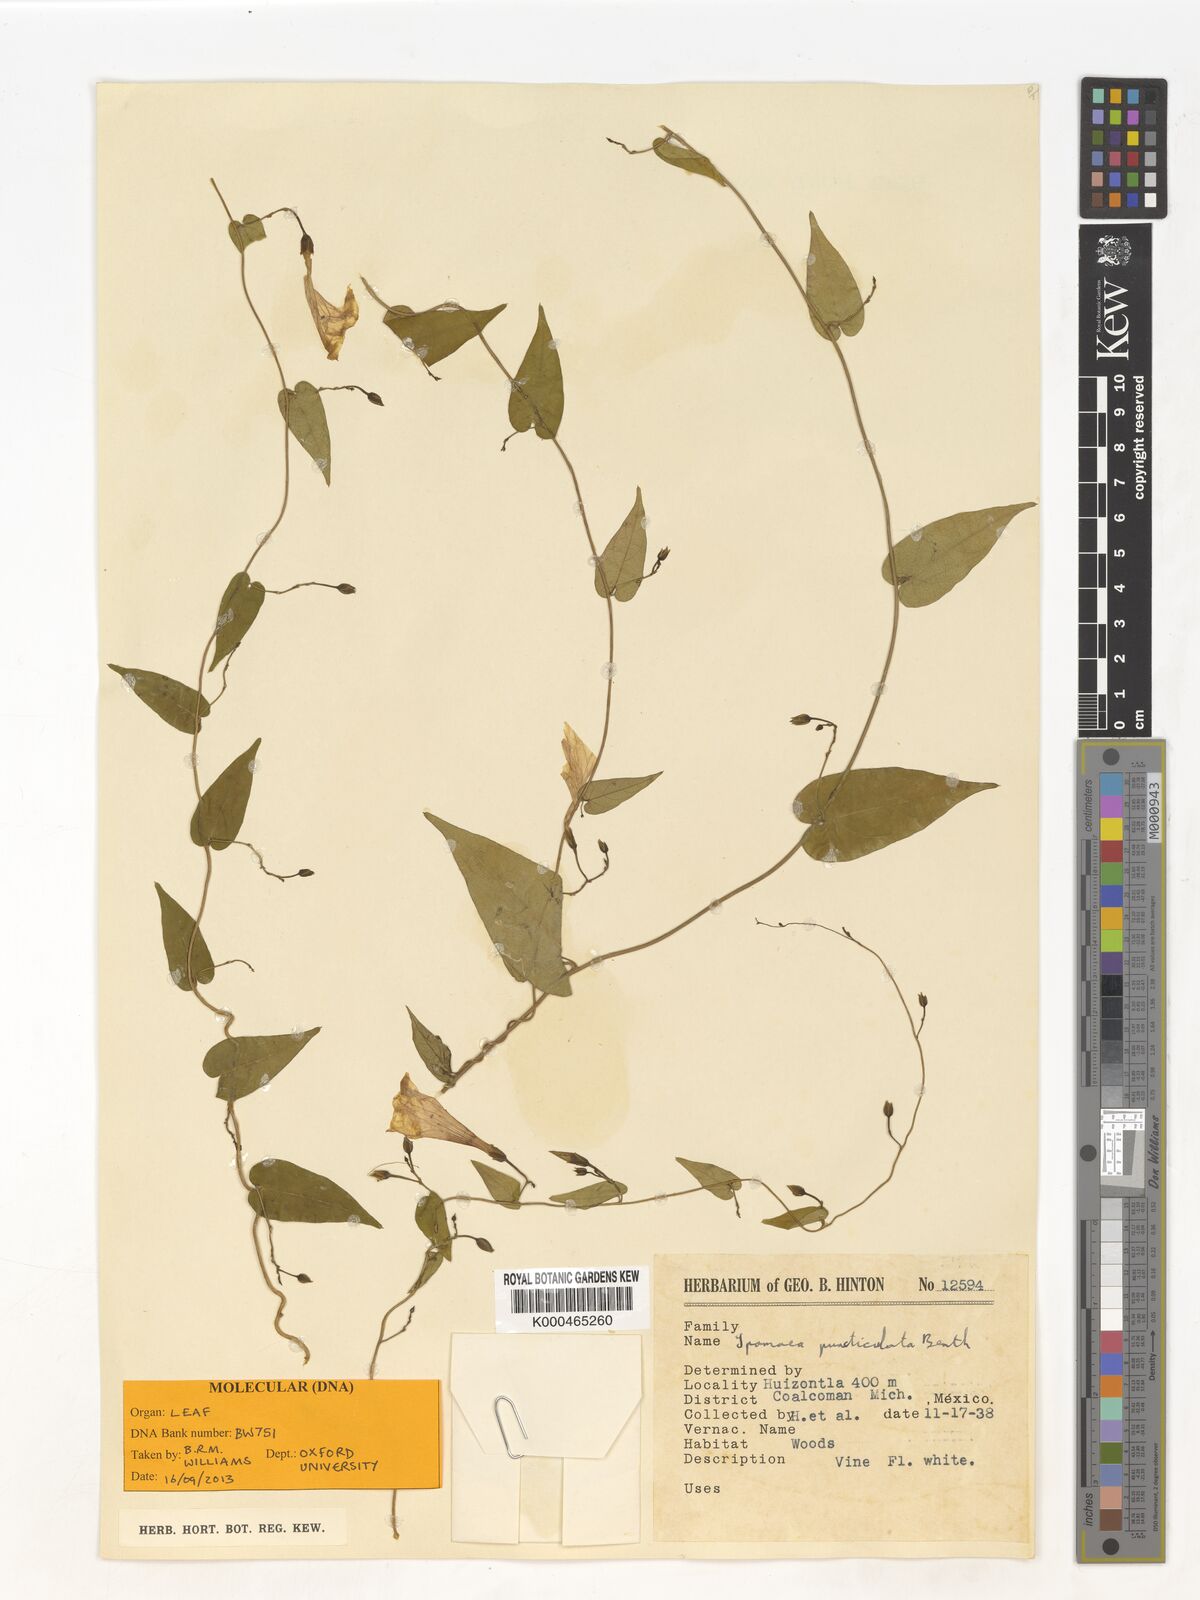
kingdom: Plantae
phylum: Tracheophyta
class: Magnoliopsida
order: Solanales
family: Convolvulaceae
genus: Ipomoea
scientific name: Ipomoea puncticulata
